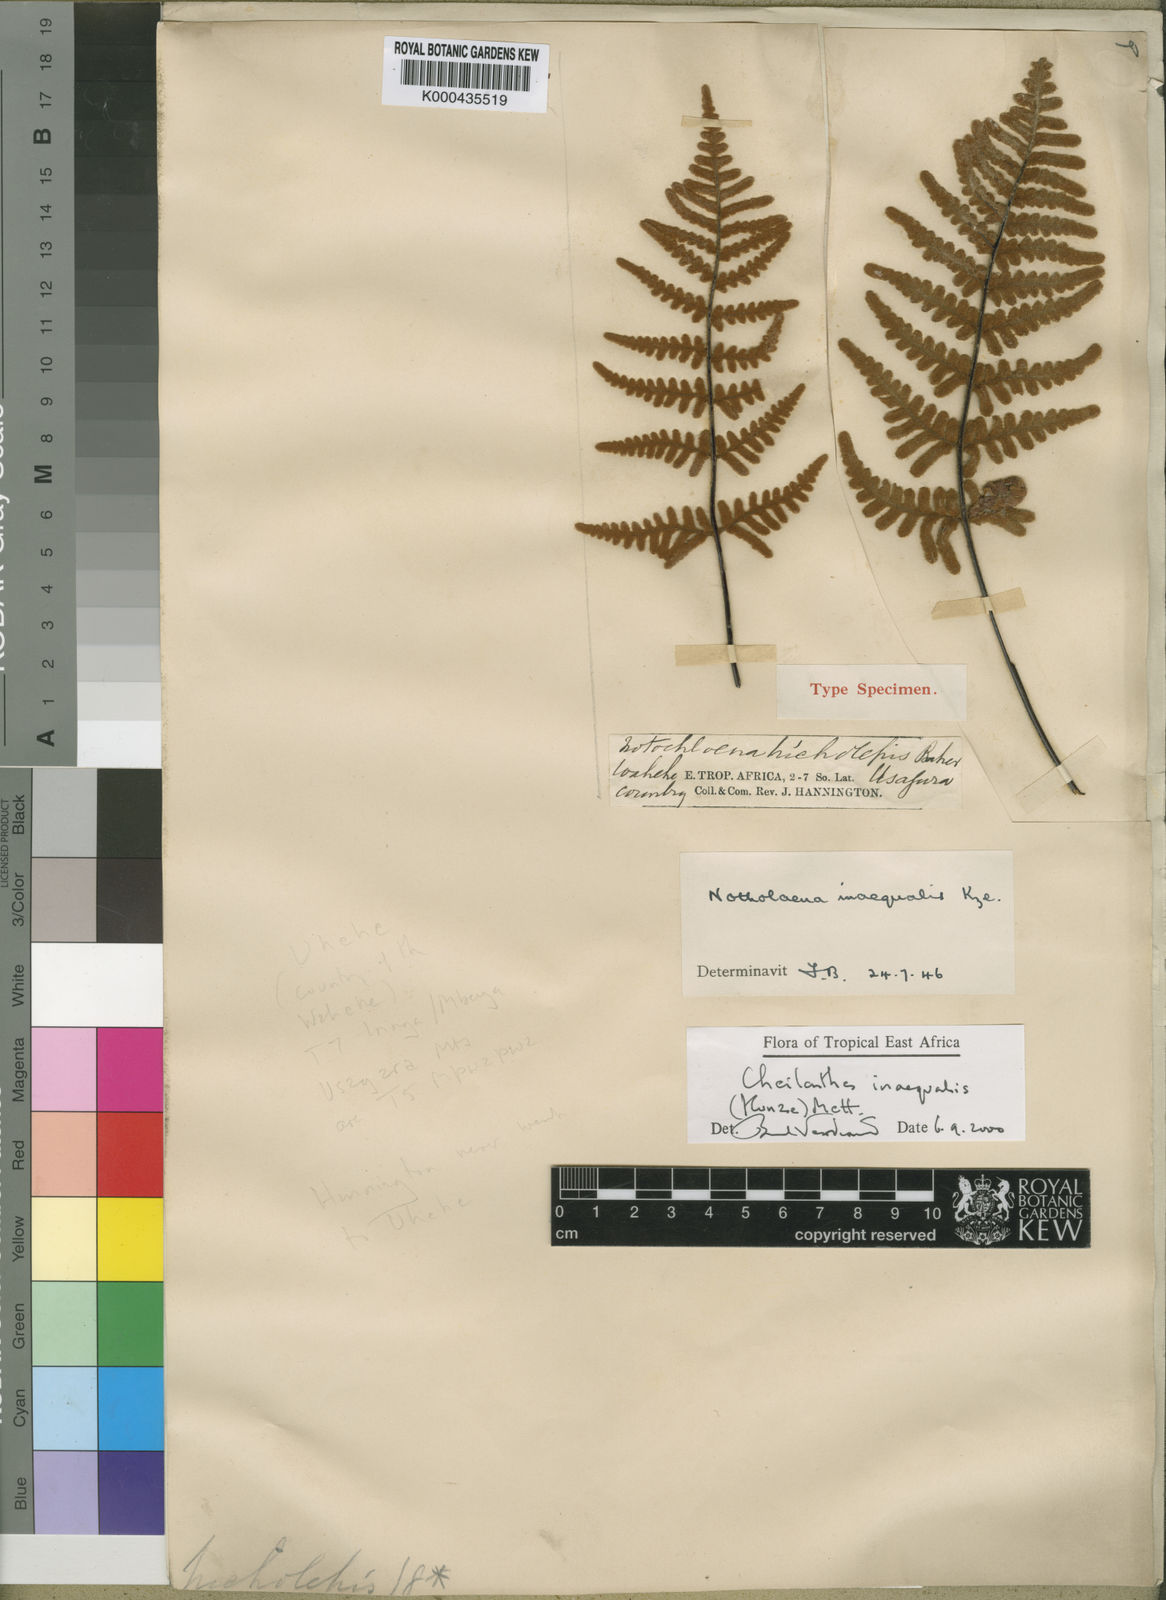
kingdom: Plantae
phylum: Tracheophyta
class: Polypodiopsida
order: Polypodiales
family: Pteridaceae
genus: Cheilanthes
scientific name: Cheilanthes inaequalis
